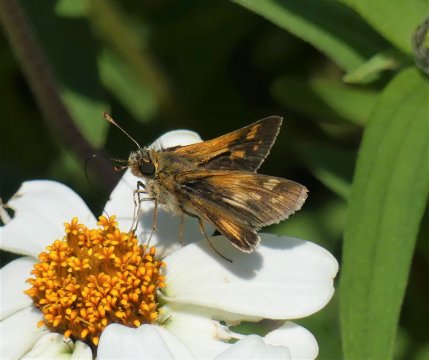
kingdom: Animalia
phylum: Arthropoda
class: Insecta
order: Lepidoptera
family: Hesperiidae
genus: Polites
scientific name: Polites coras
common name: Peck's Skipper
